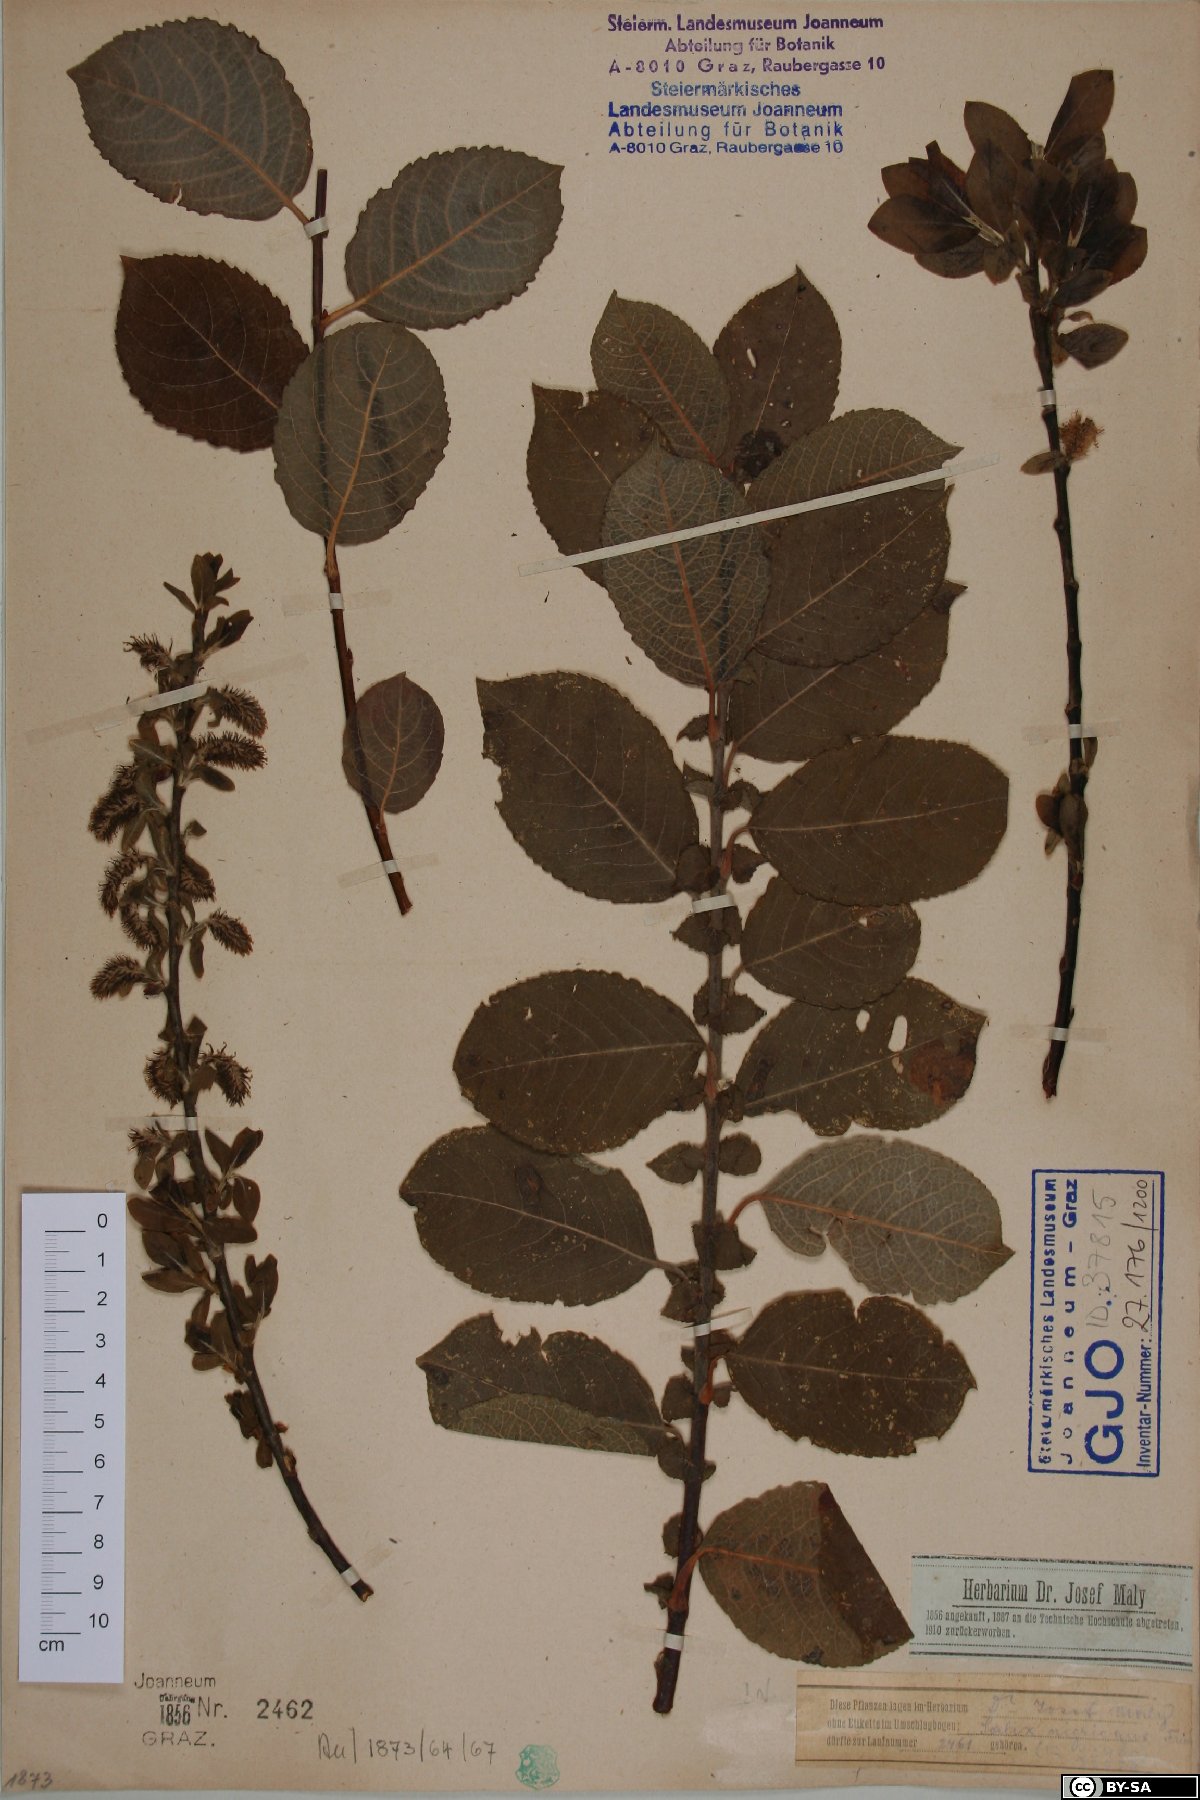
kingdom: Plantae
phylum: Tracheophyta
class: Magnoliopsida
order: Malpighiales
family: Salicaceae
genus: Salix
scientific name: Salix caprea
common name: Goat willow
